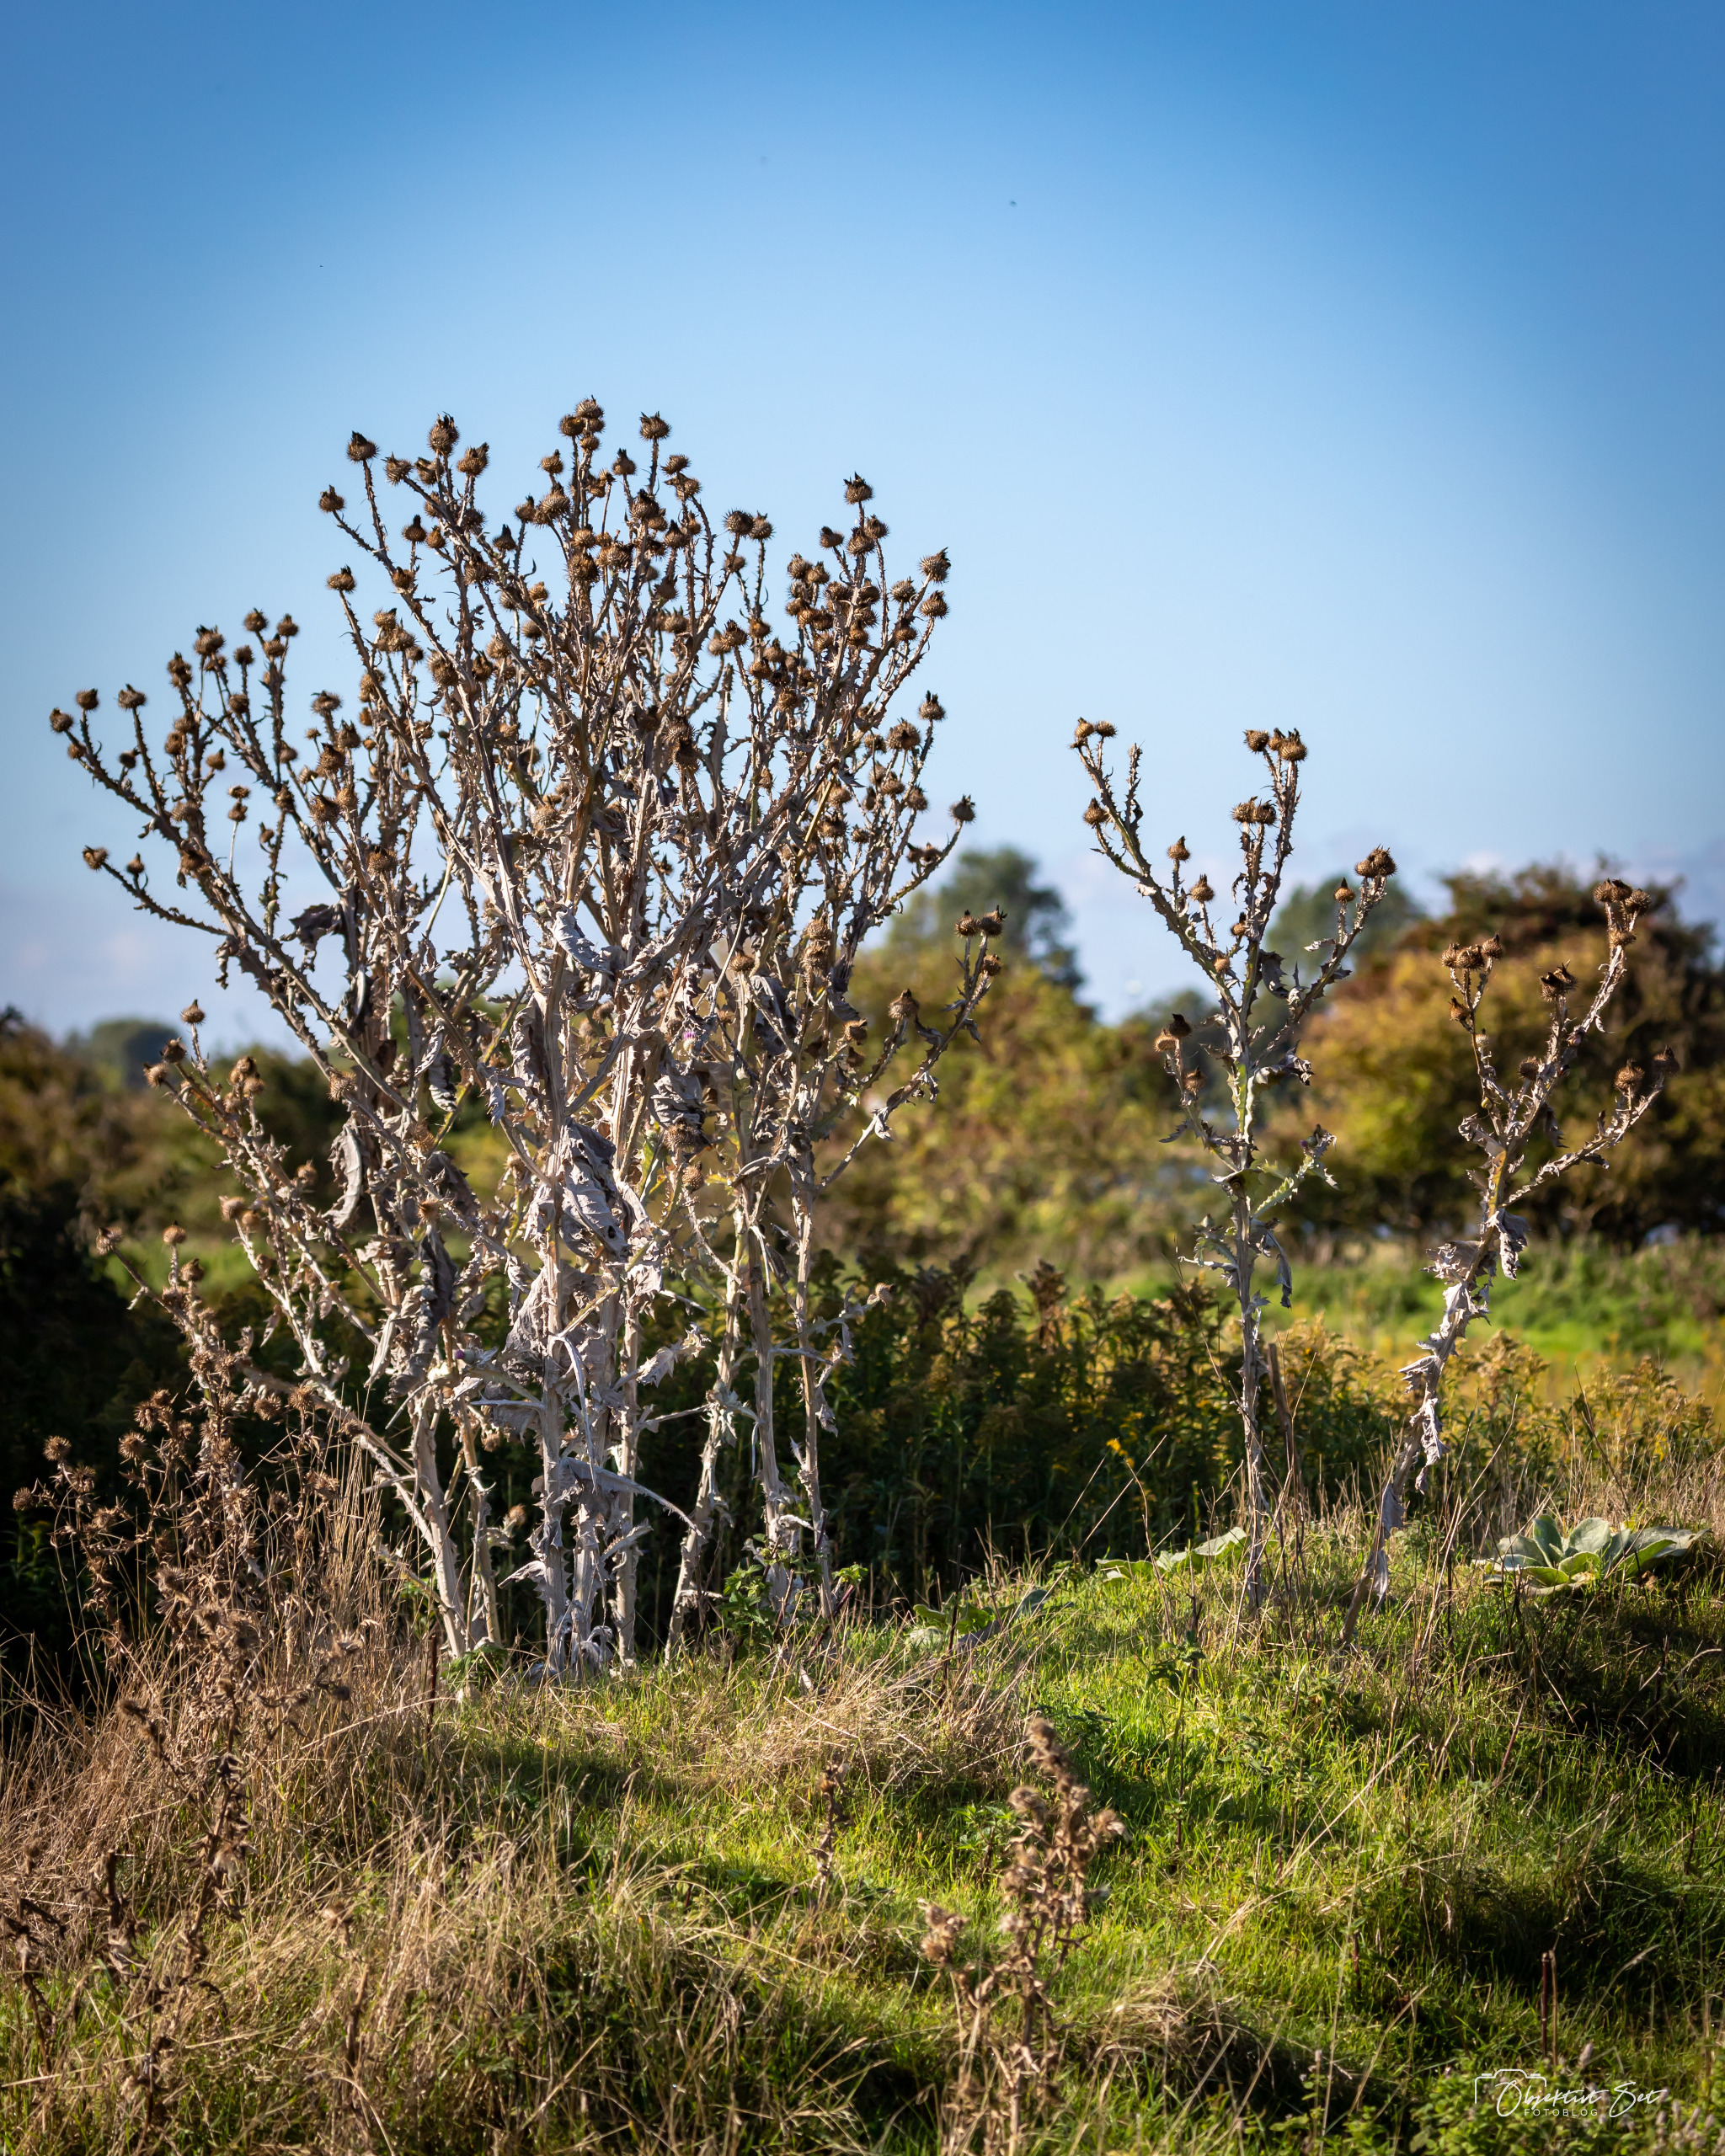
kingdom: Plantae
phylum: Tracheophyta
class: Magnoliopsida
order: Asterales
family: Asteraceae
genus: Onopordum
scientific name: Onopordum acanthium
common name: Æselfoder
